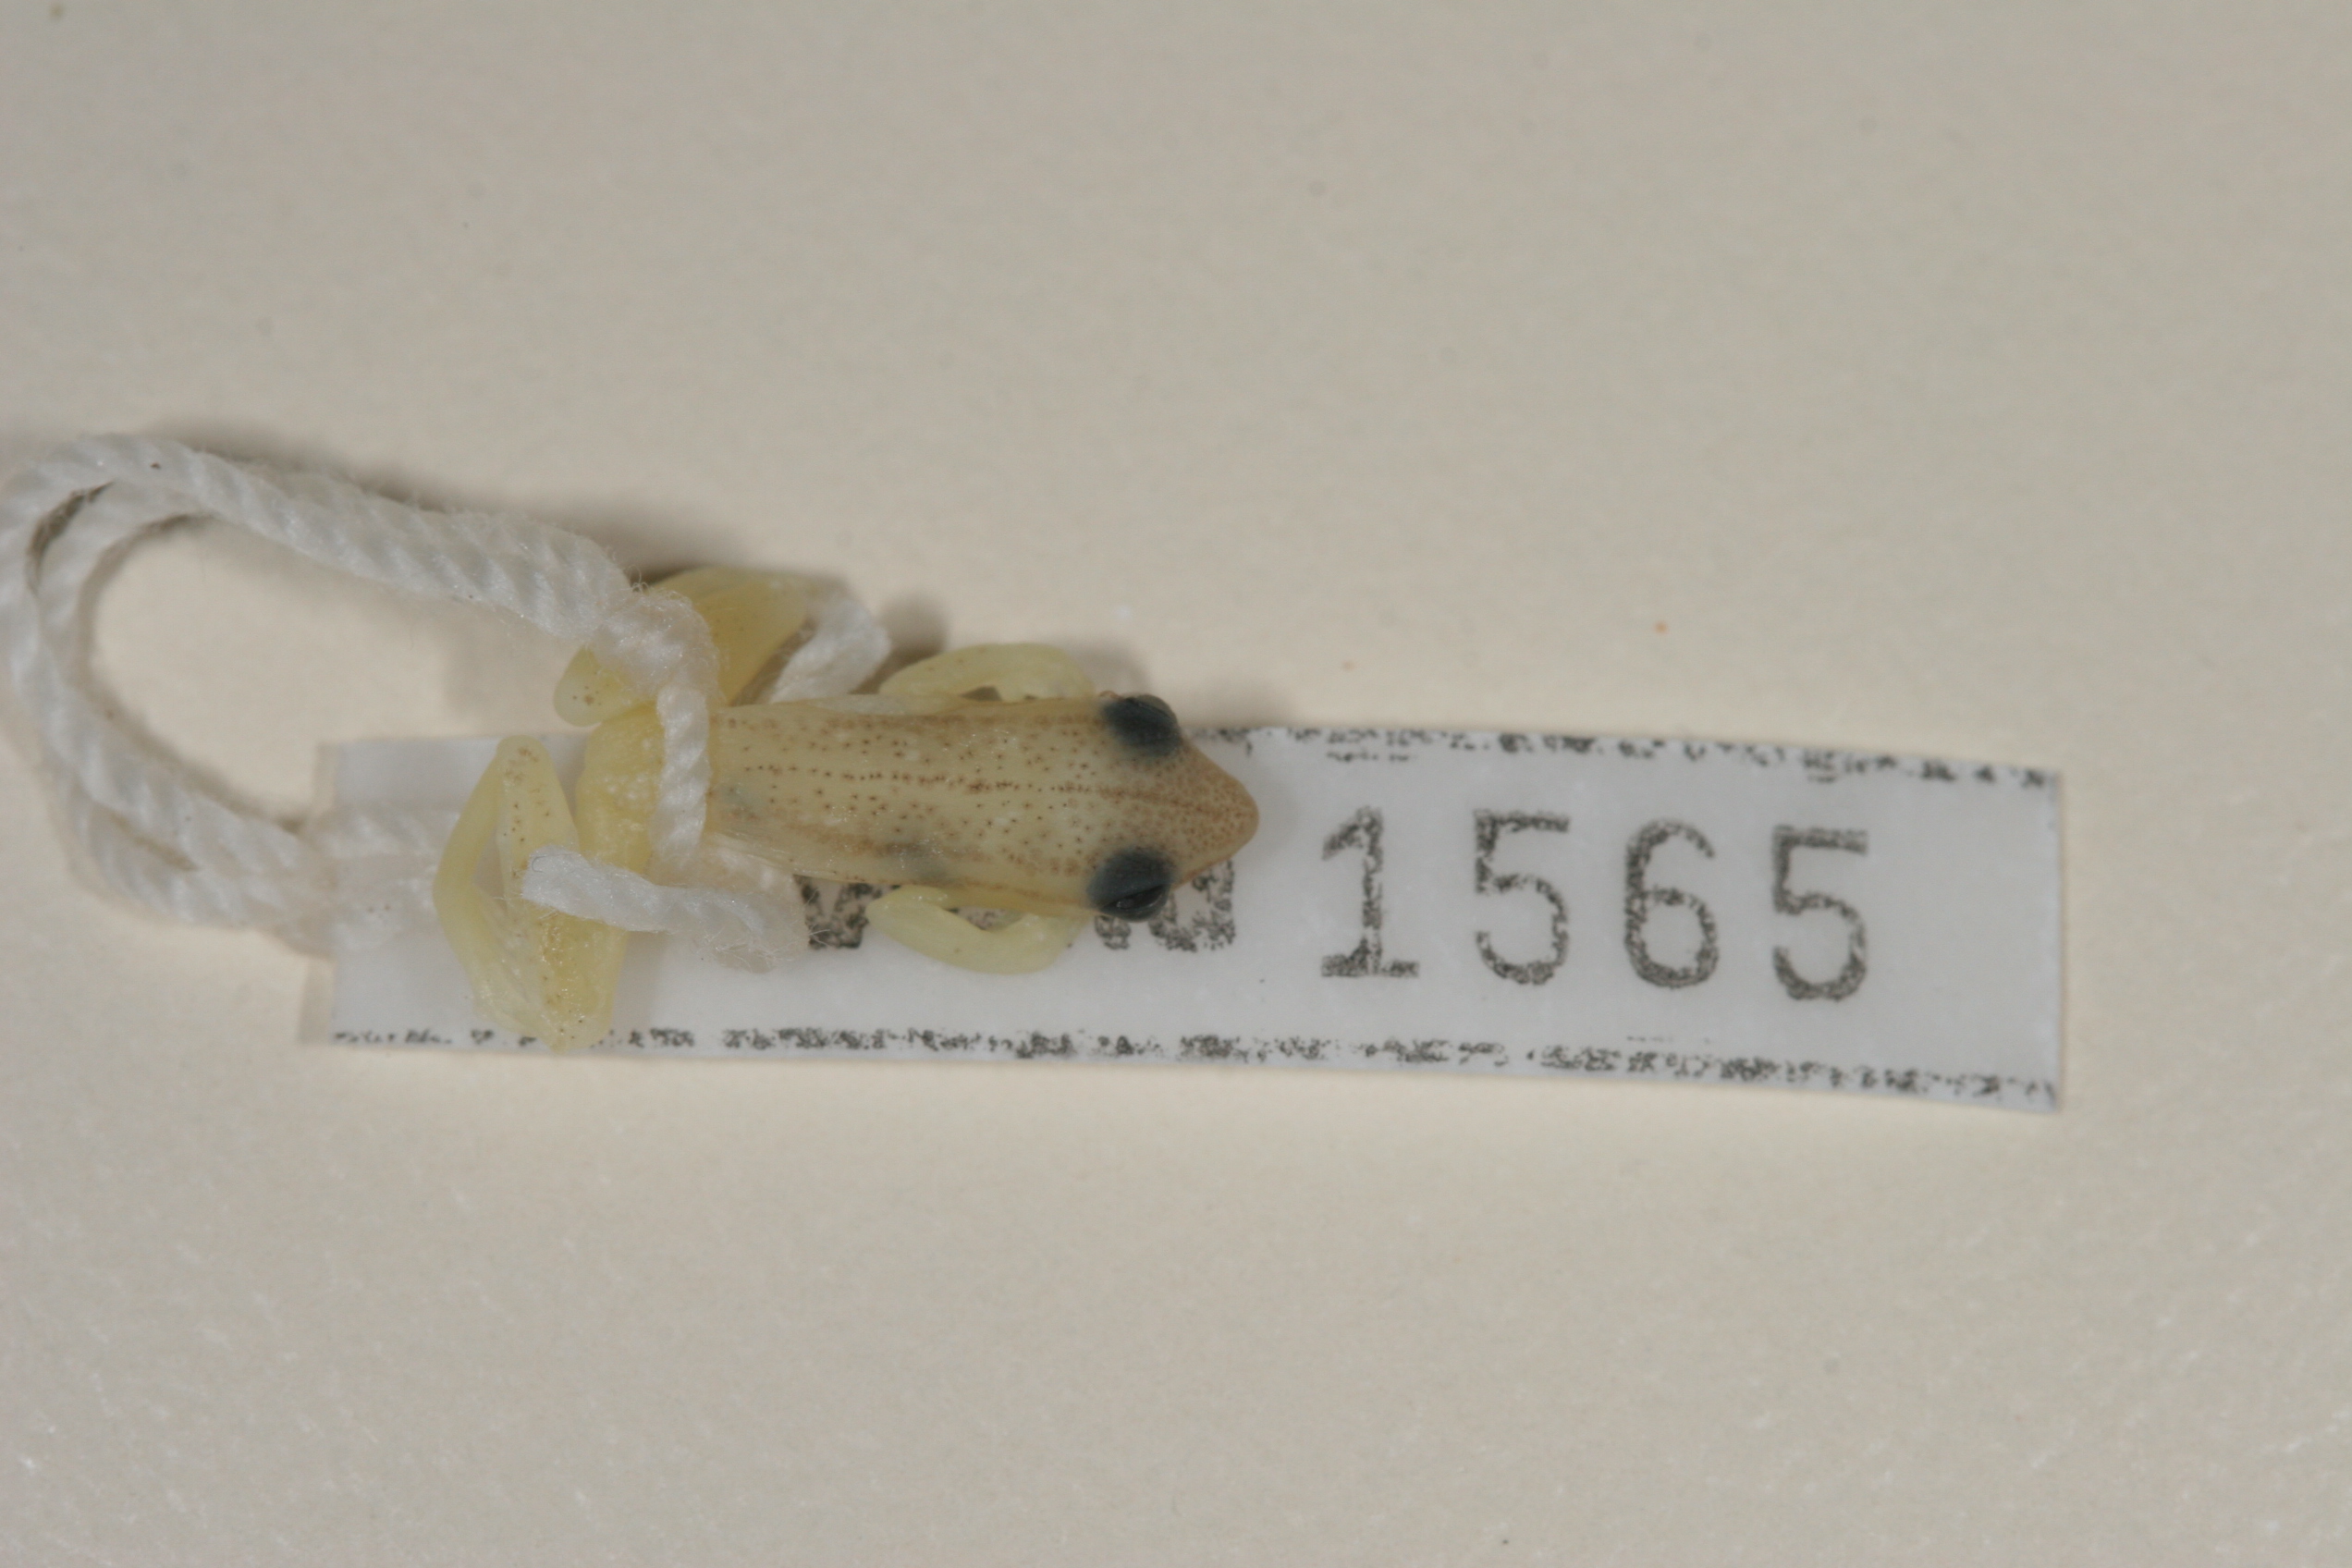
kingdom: Animalia
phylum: Chordata
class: Amphibia
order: Anura
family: Hyperoliidae
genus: Hyperolius
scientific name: Hyperolius nasutus
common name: Sharp-and-blunt-snouted sedge frog
